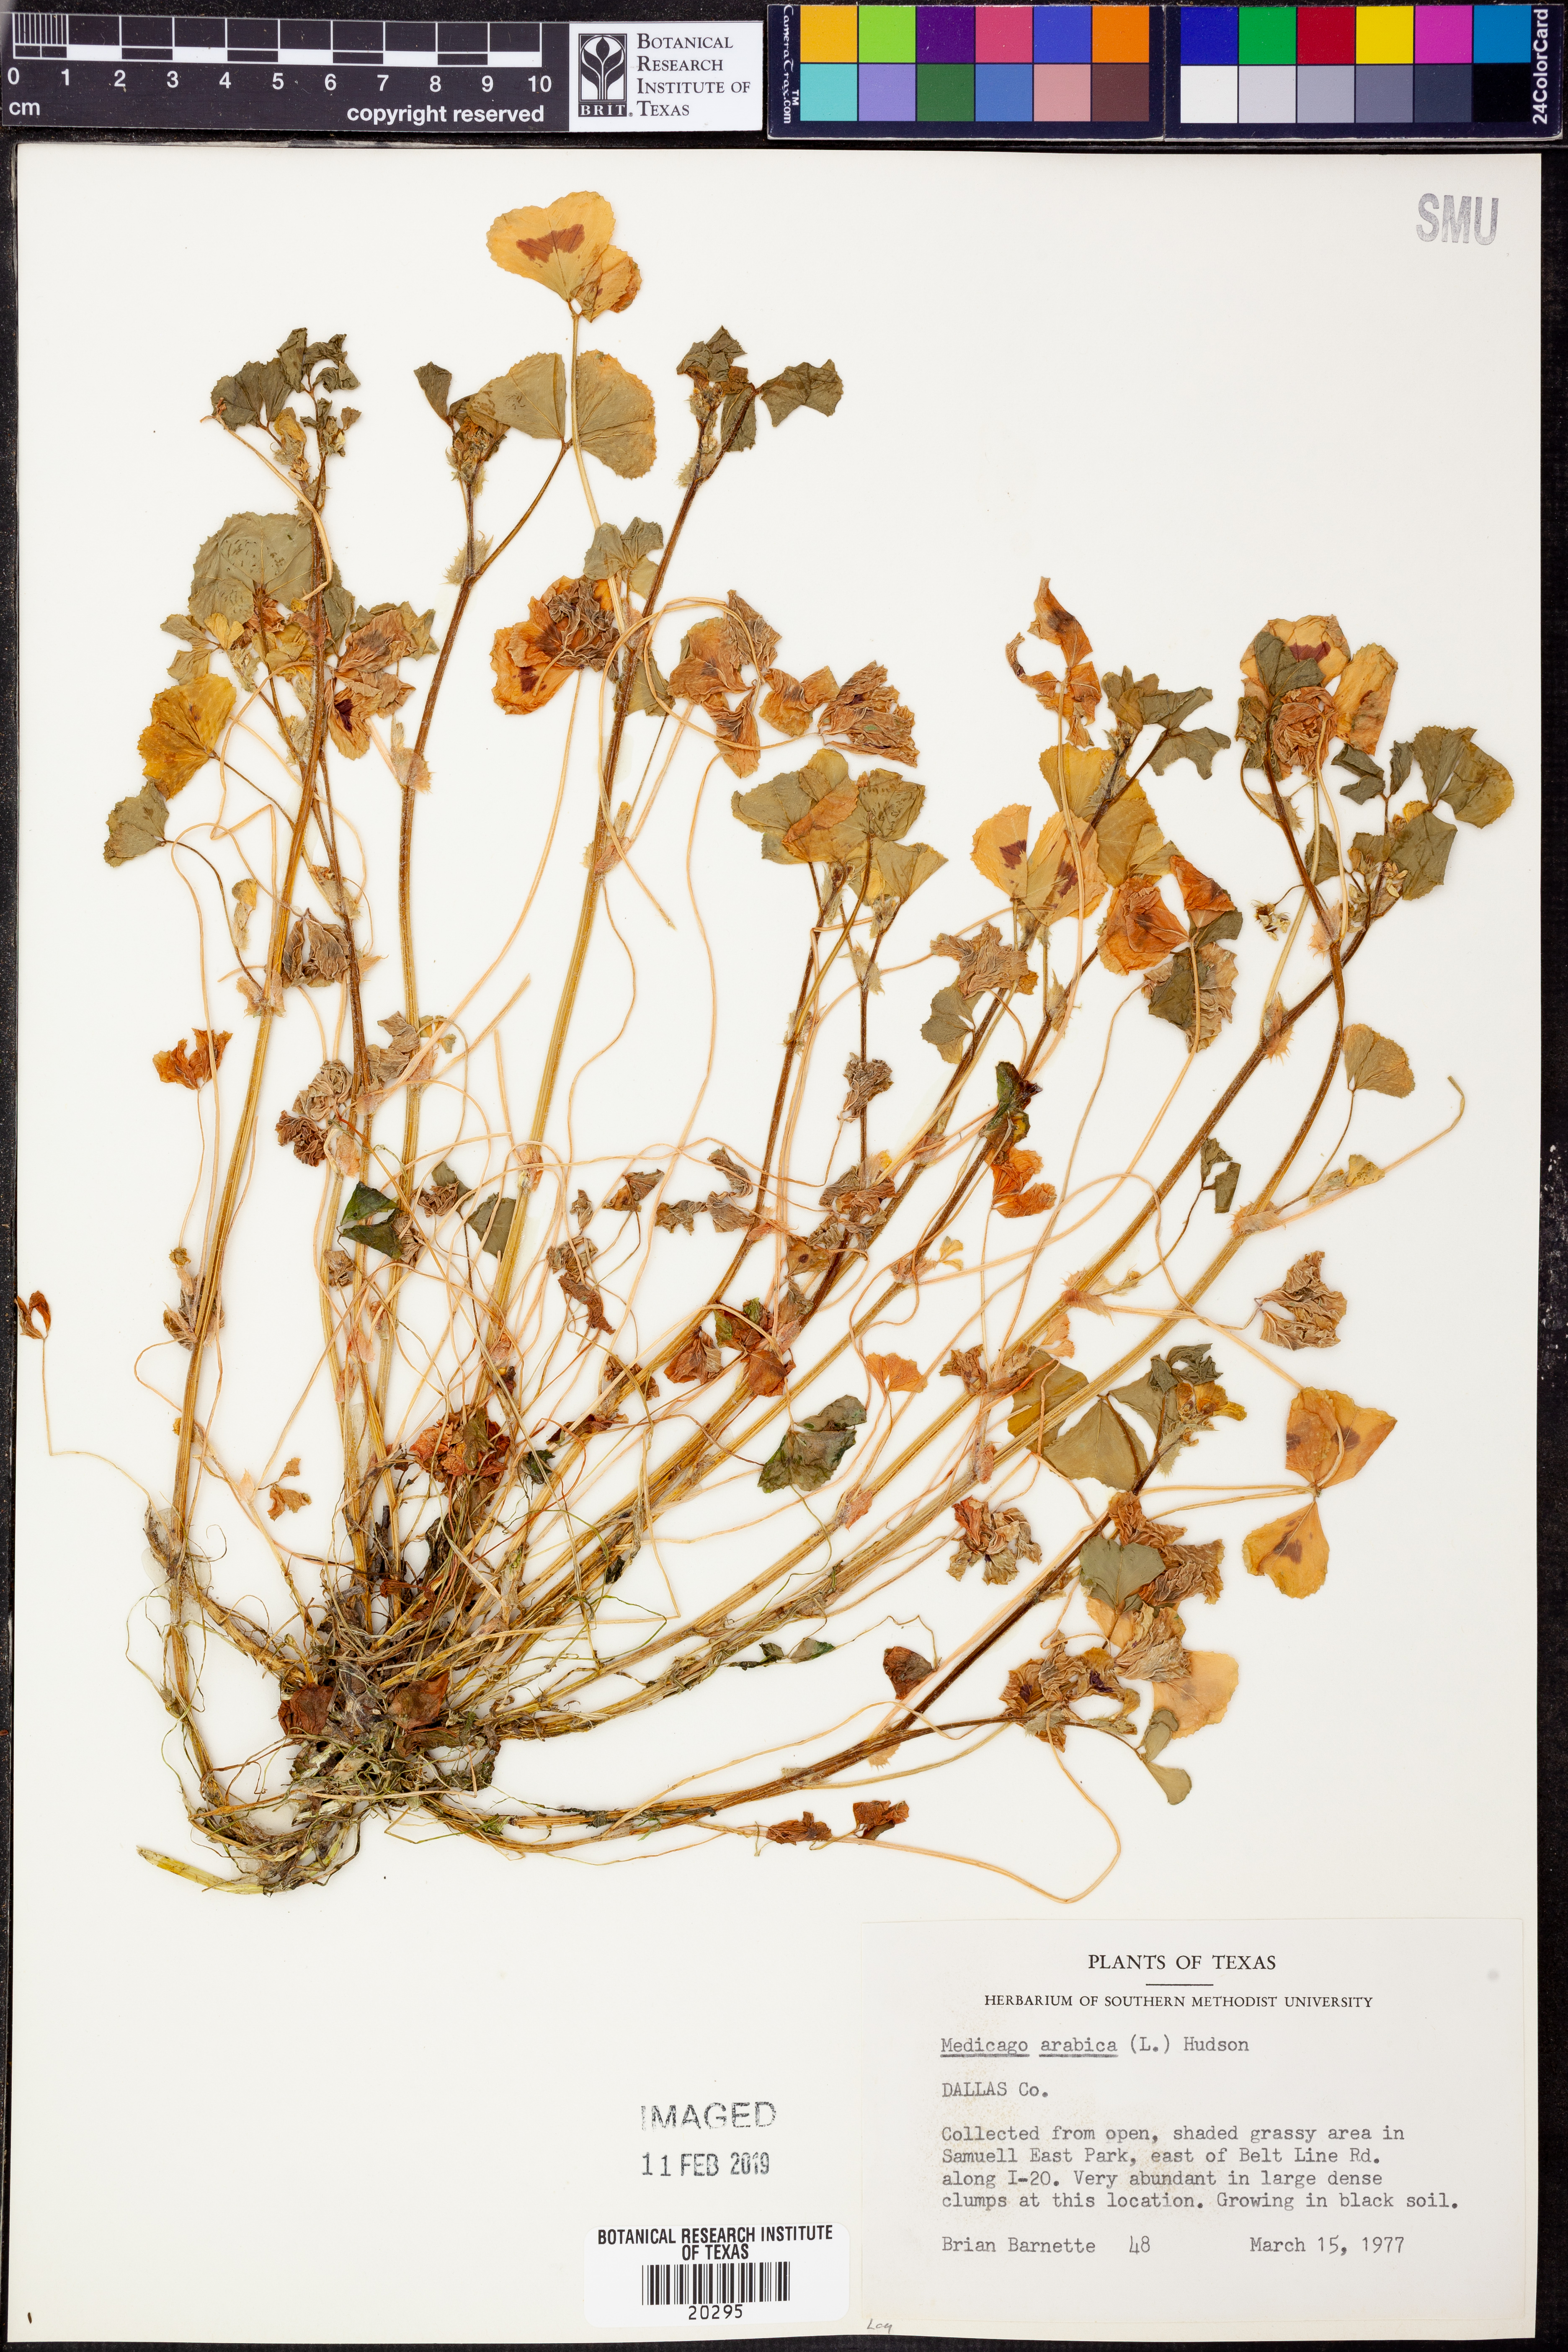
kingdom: Plantae
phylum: Tracheophyta
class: Magnoliopsida
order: Fabales
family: Fabaceae
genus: Medicago
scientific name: Medicago arabica
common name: Spotted medick
